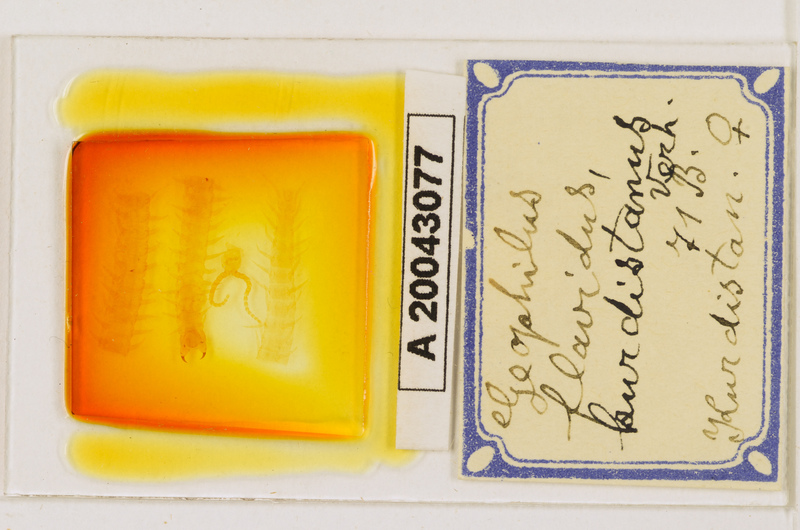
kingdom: Animalia
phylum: Arthropoda
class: Chilopoda
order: Geophilomorpha
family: Geophilidae
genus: Clinopodes
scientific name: Clinopodes flavidus
